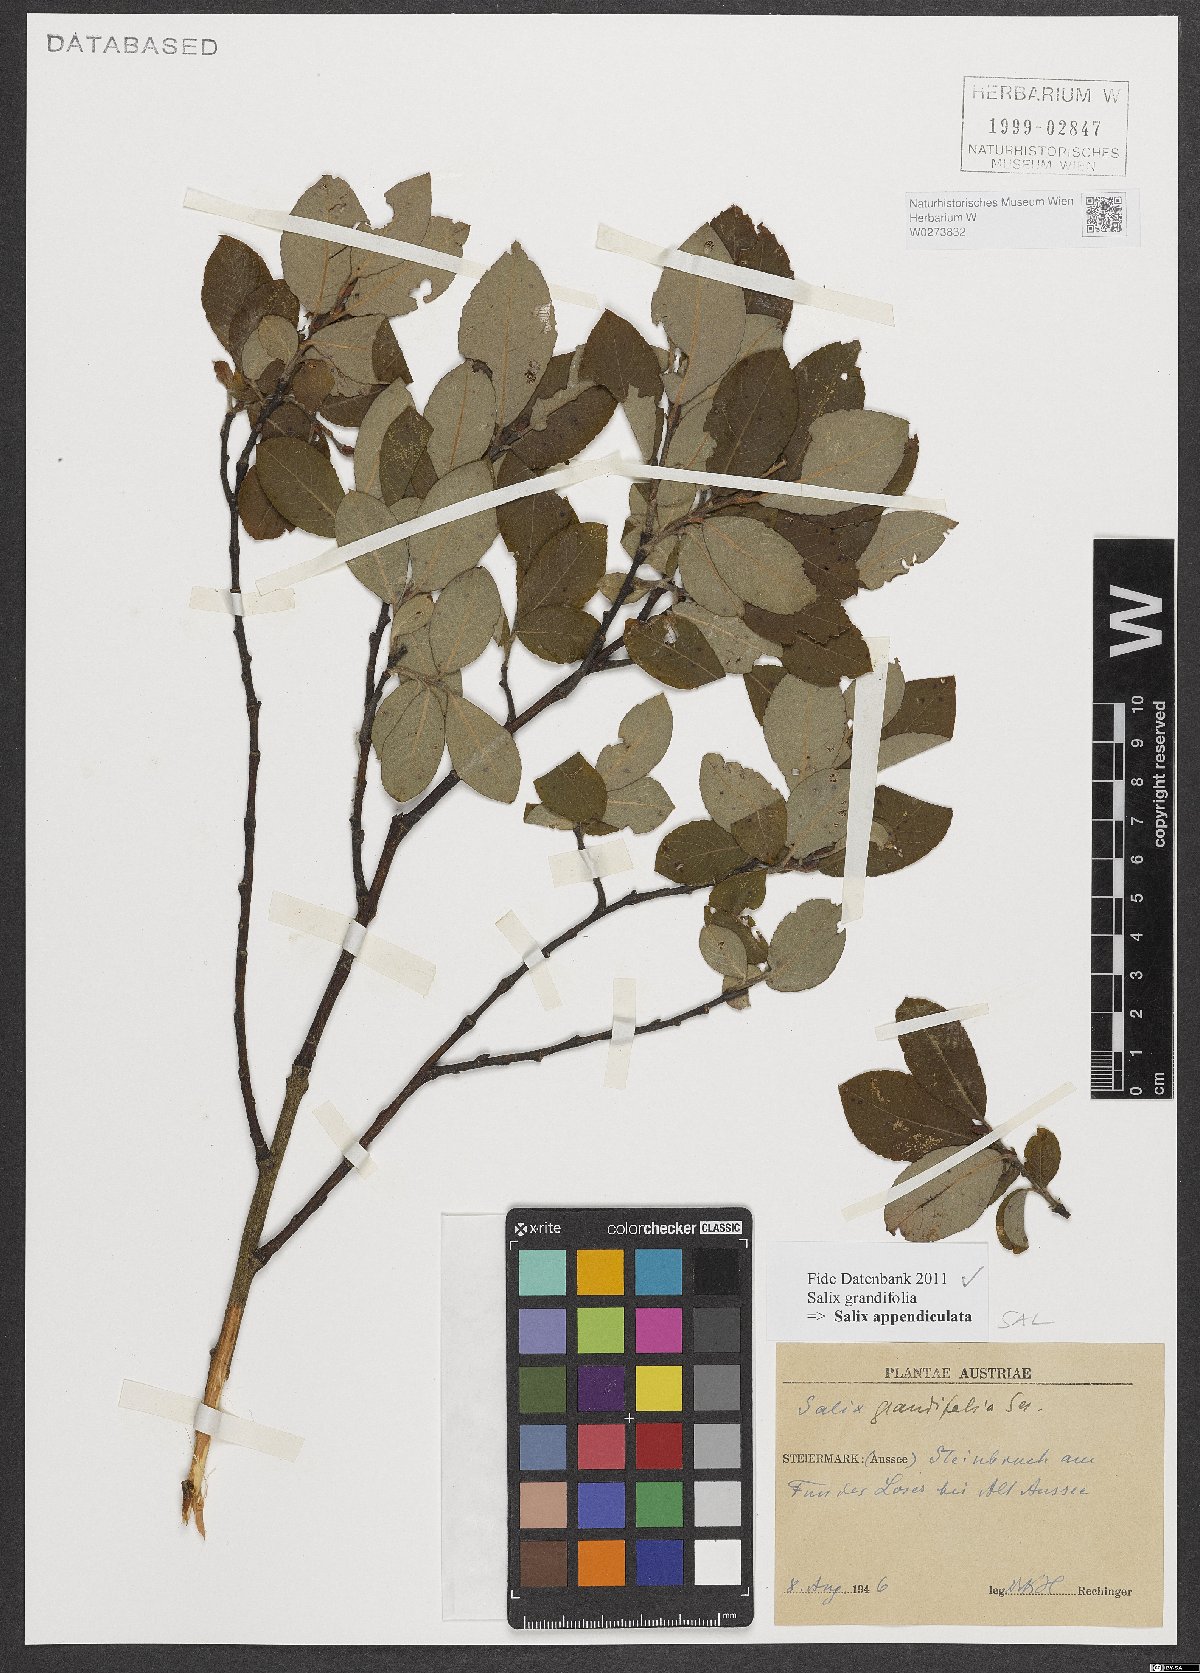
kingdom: Plantae
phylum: Tracheophyta
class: Magnoliopsida
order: Malpighiales
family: Salicaceae
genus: Salix
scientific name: Salix appendiculata
